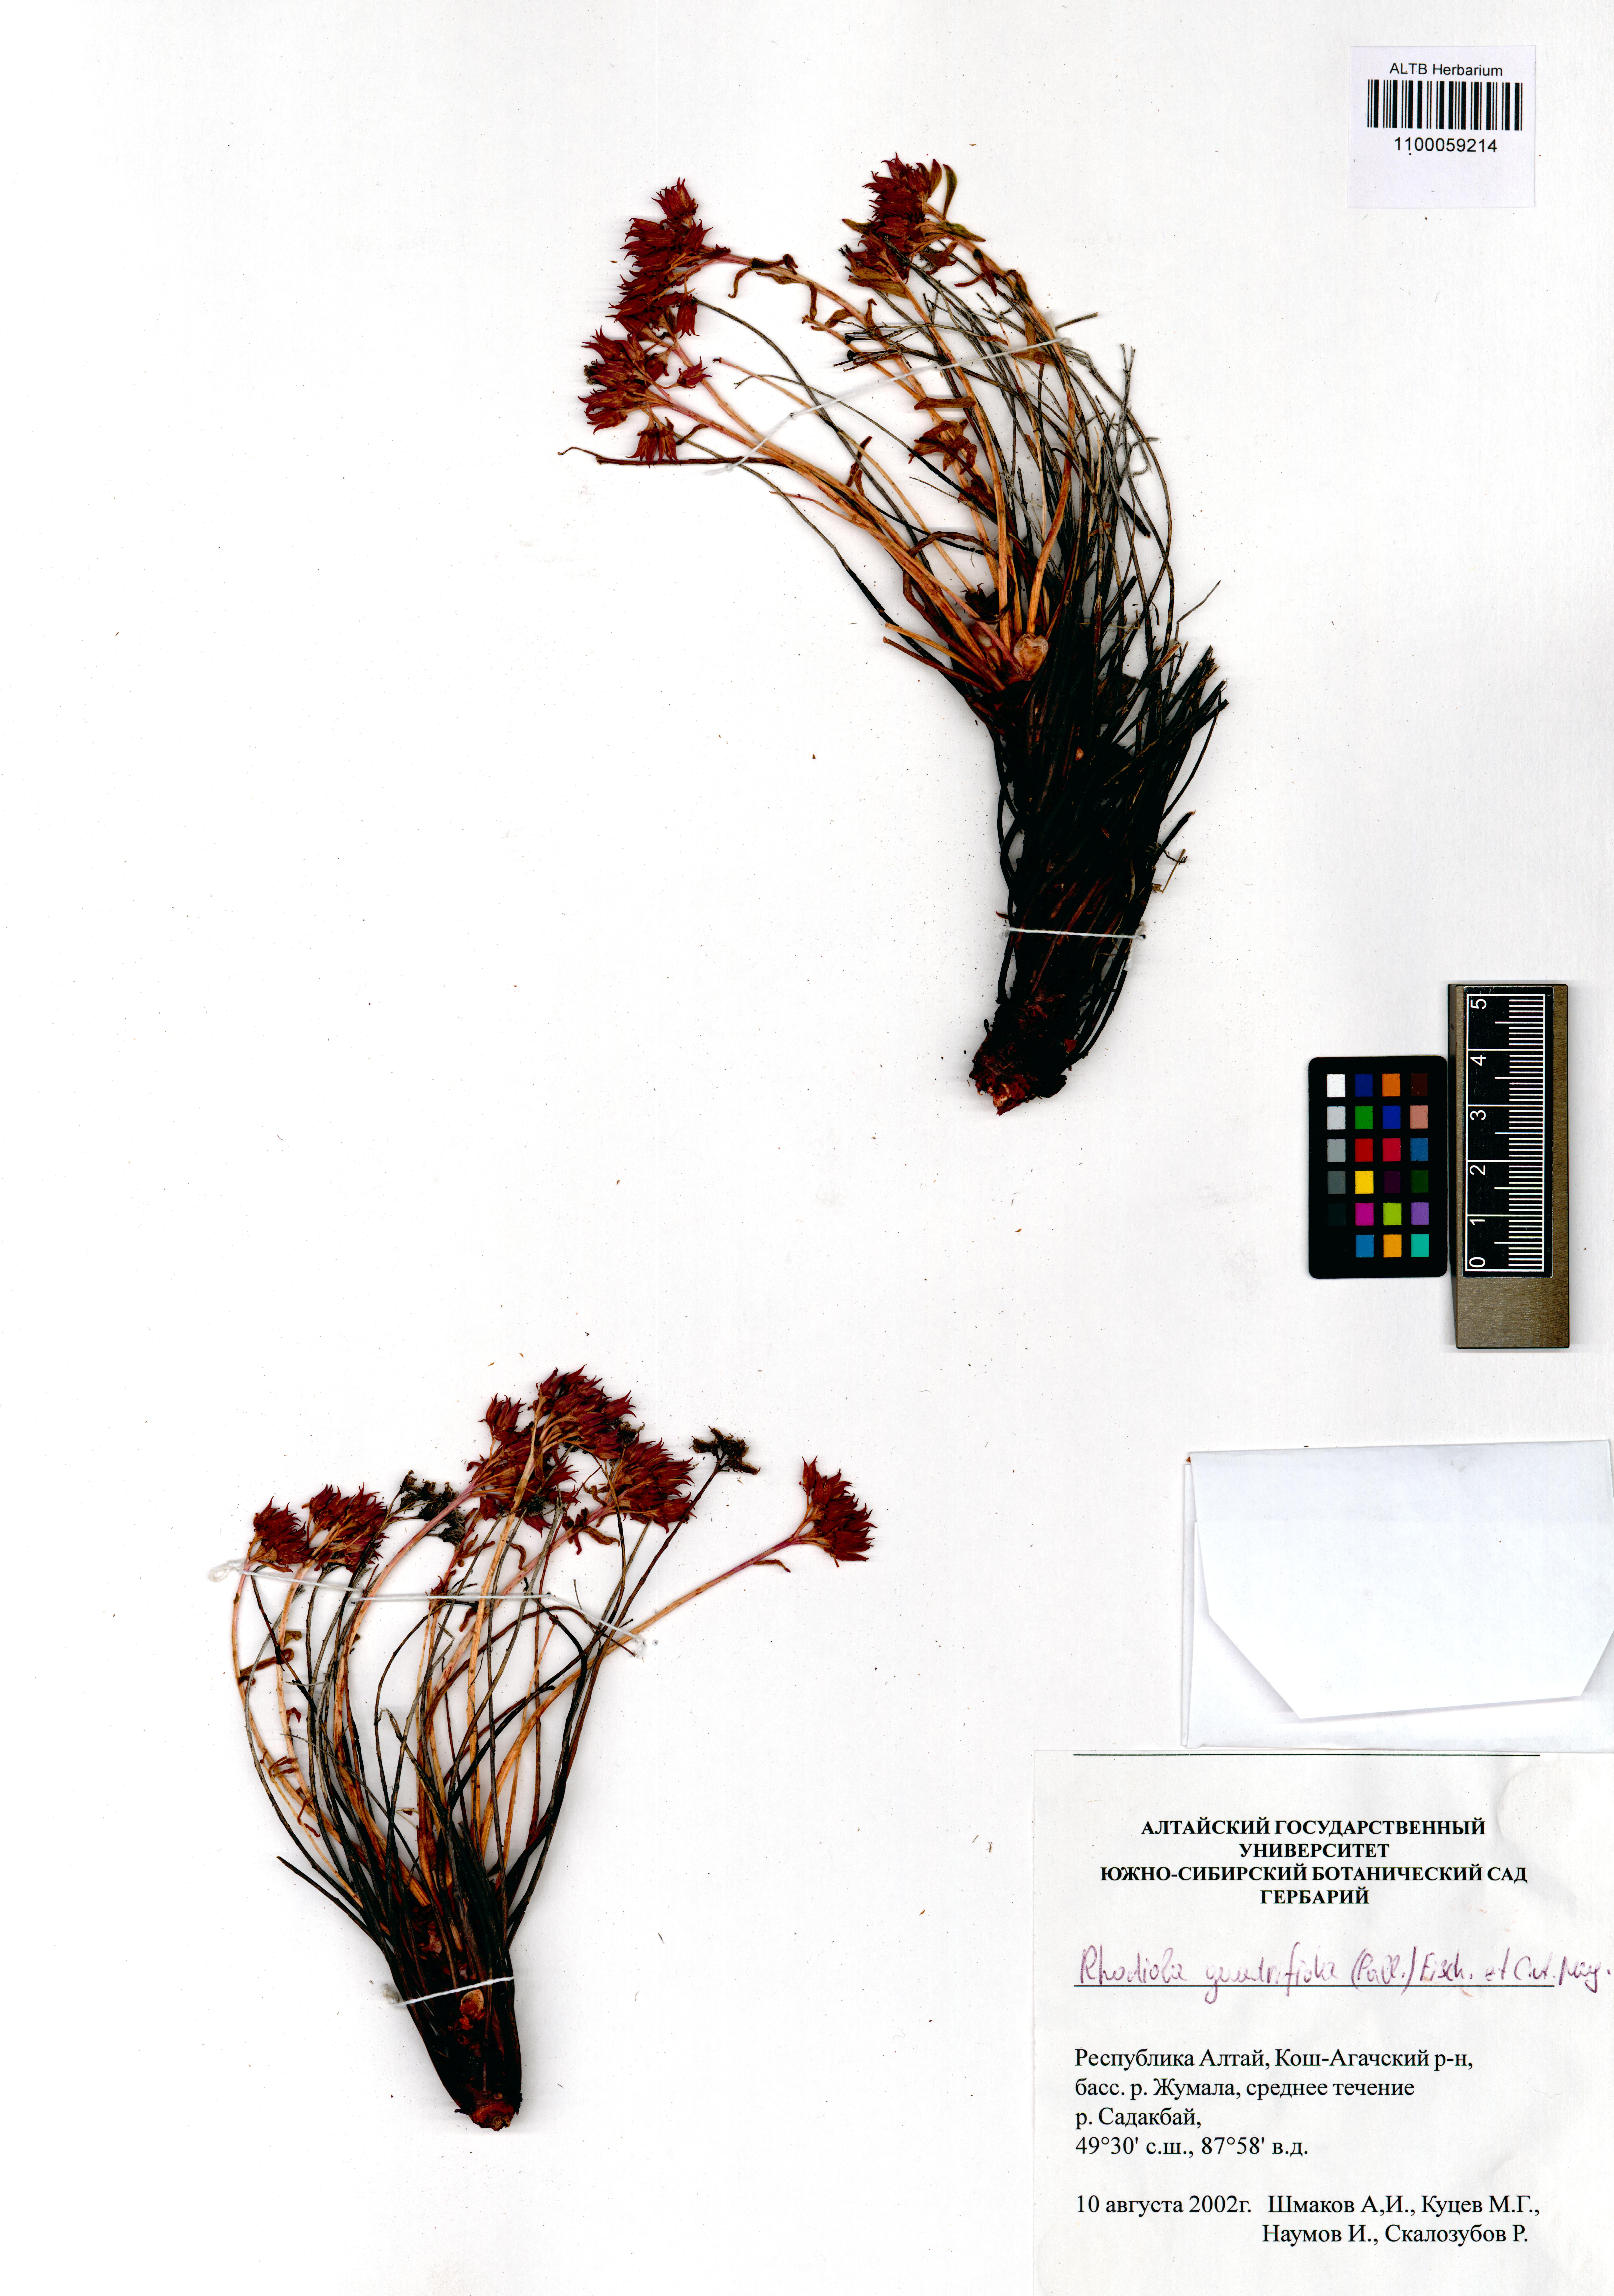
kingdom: Plantae
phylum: Tracheophyta
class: Magnoliopsida
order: Saxifragales
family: Crassulaceae
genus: Rhodiola
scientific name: Rhodiola quadrifida
